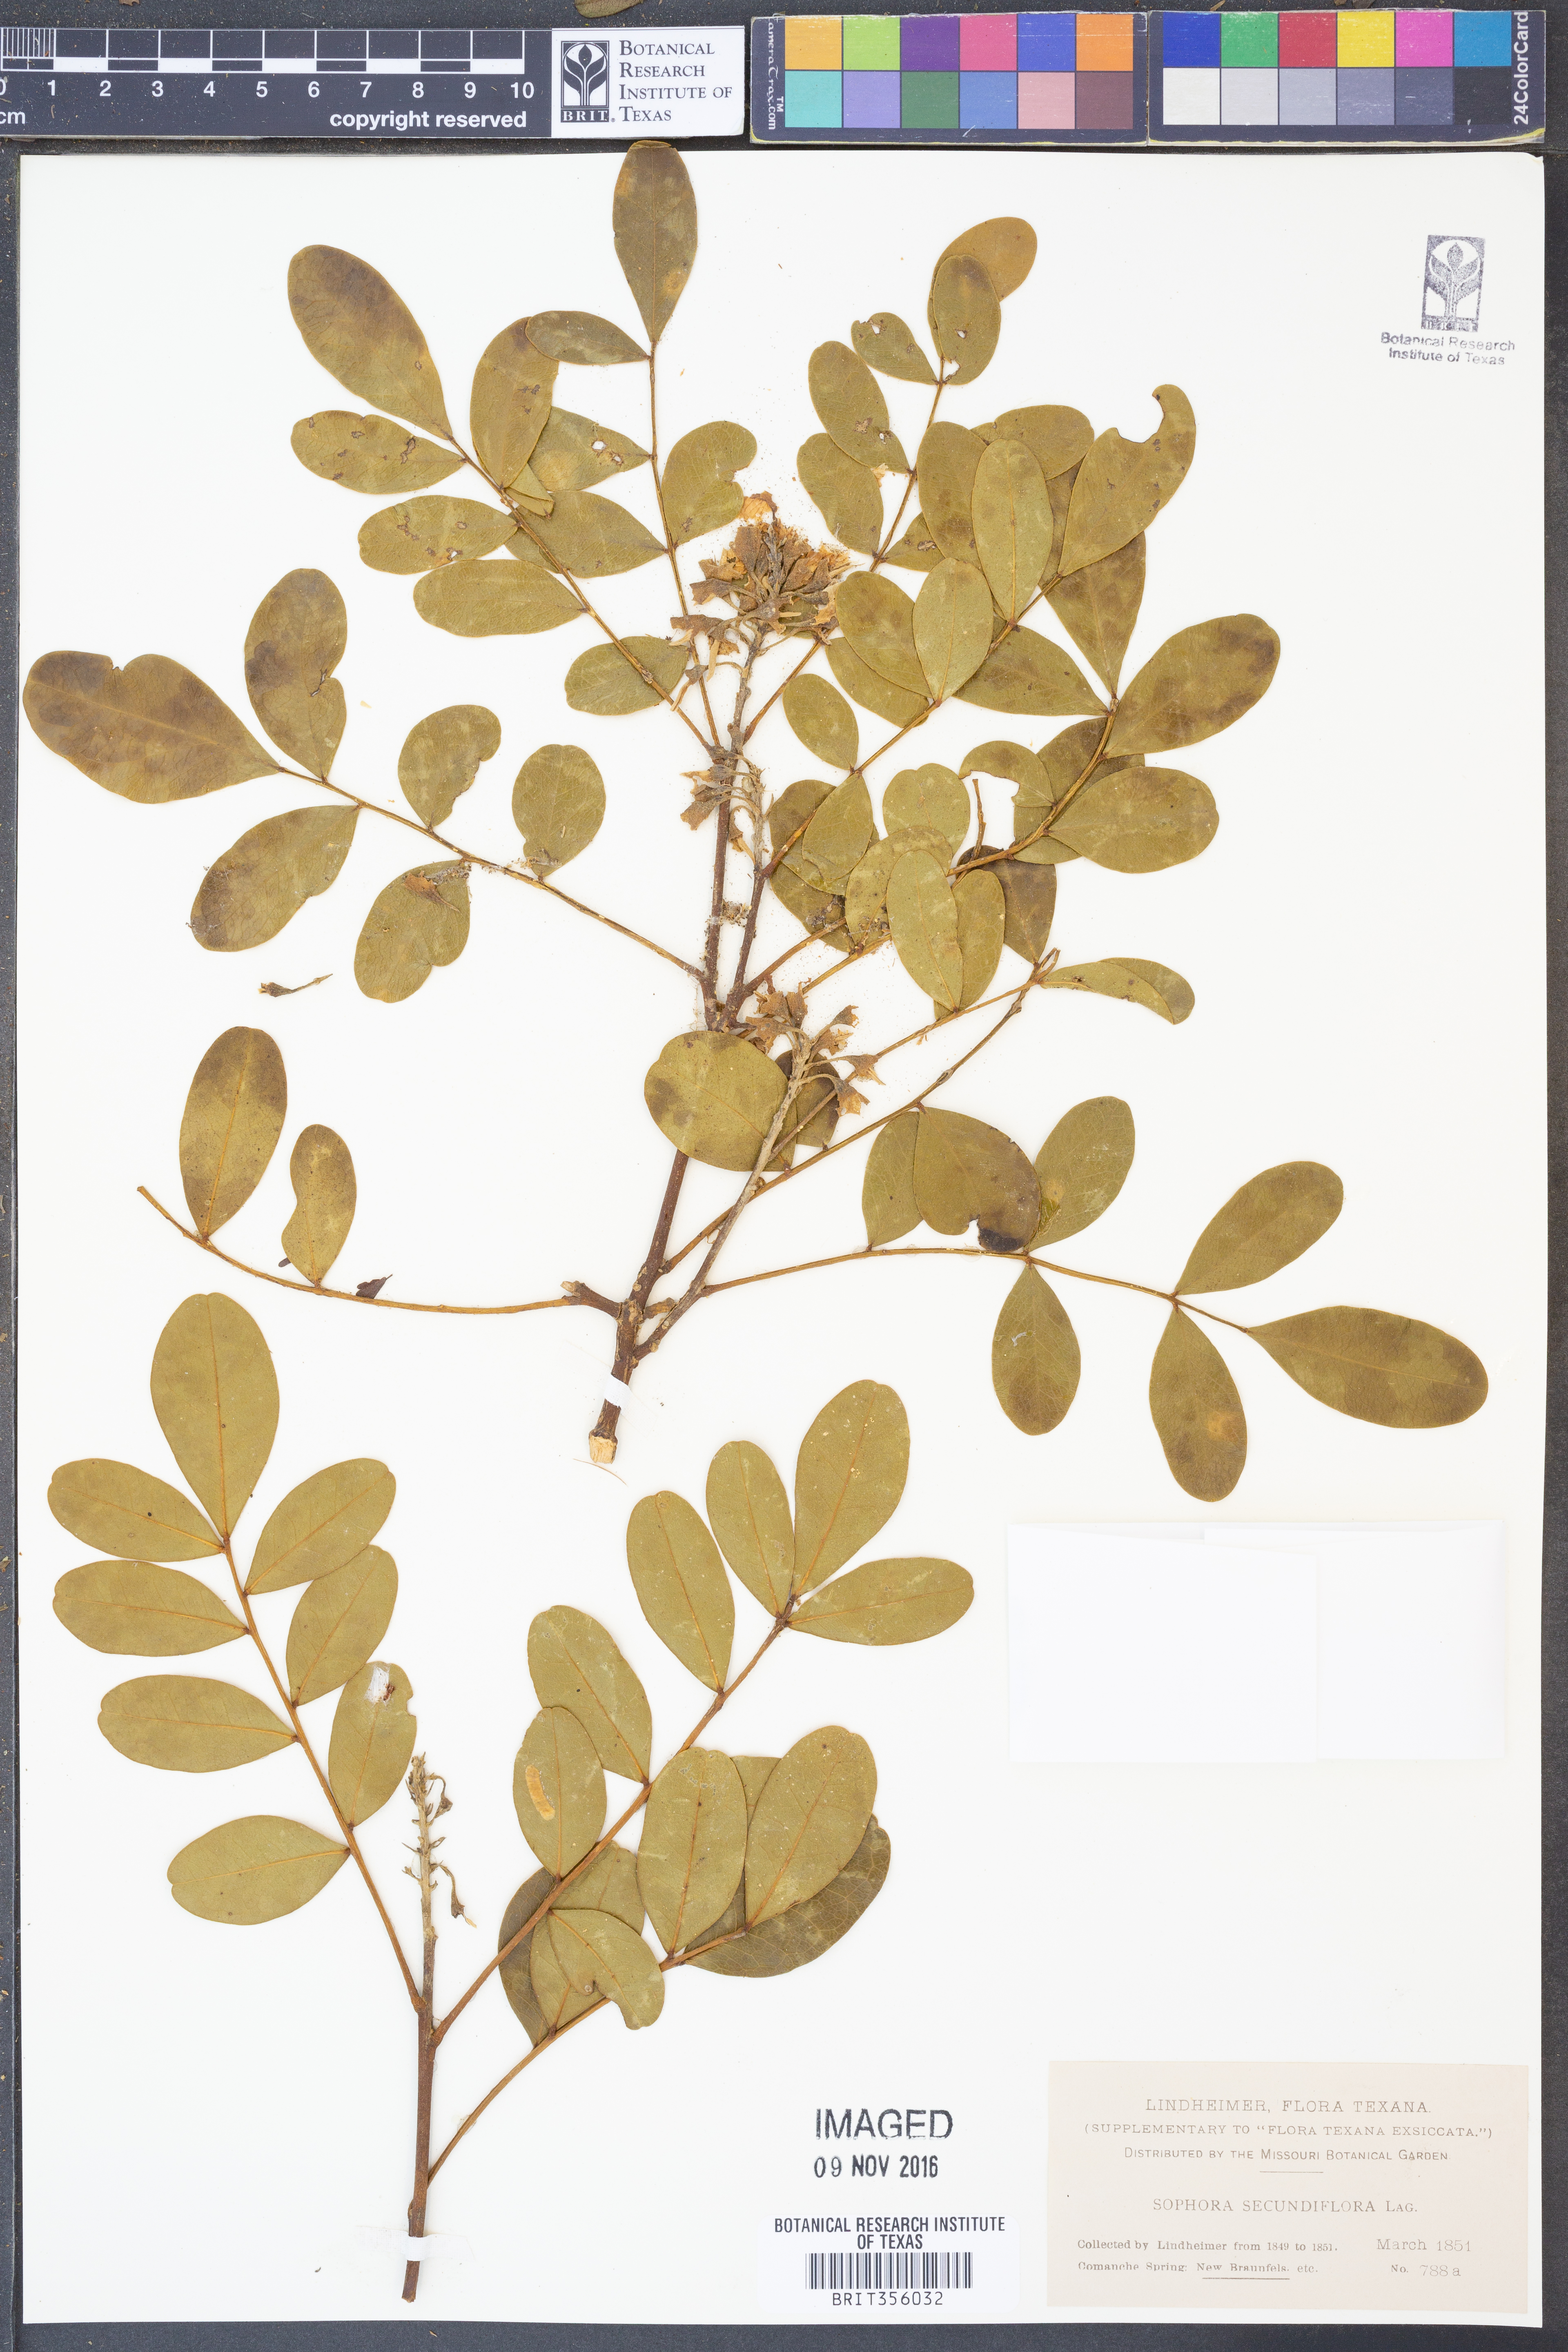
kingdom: Plantae
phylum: Tracheophyta
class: Magnoliopsida
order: Fabales
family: Fabaceae
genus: Dermatophyllum
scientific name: Dermatophyllum secundiflorum
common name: Texas-mountain-laurel
